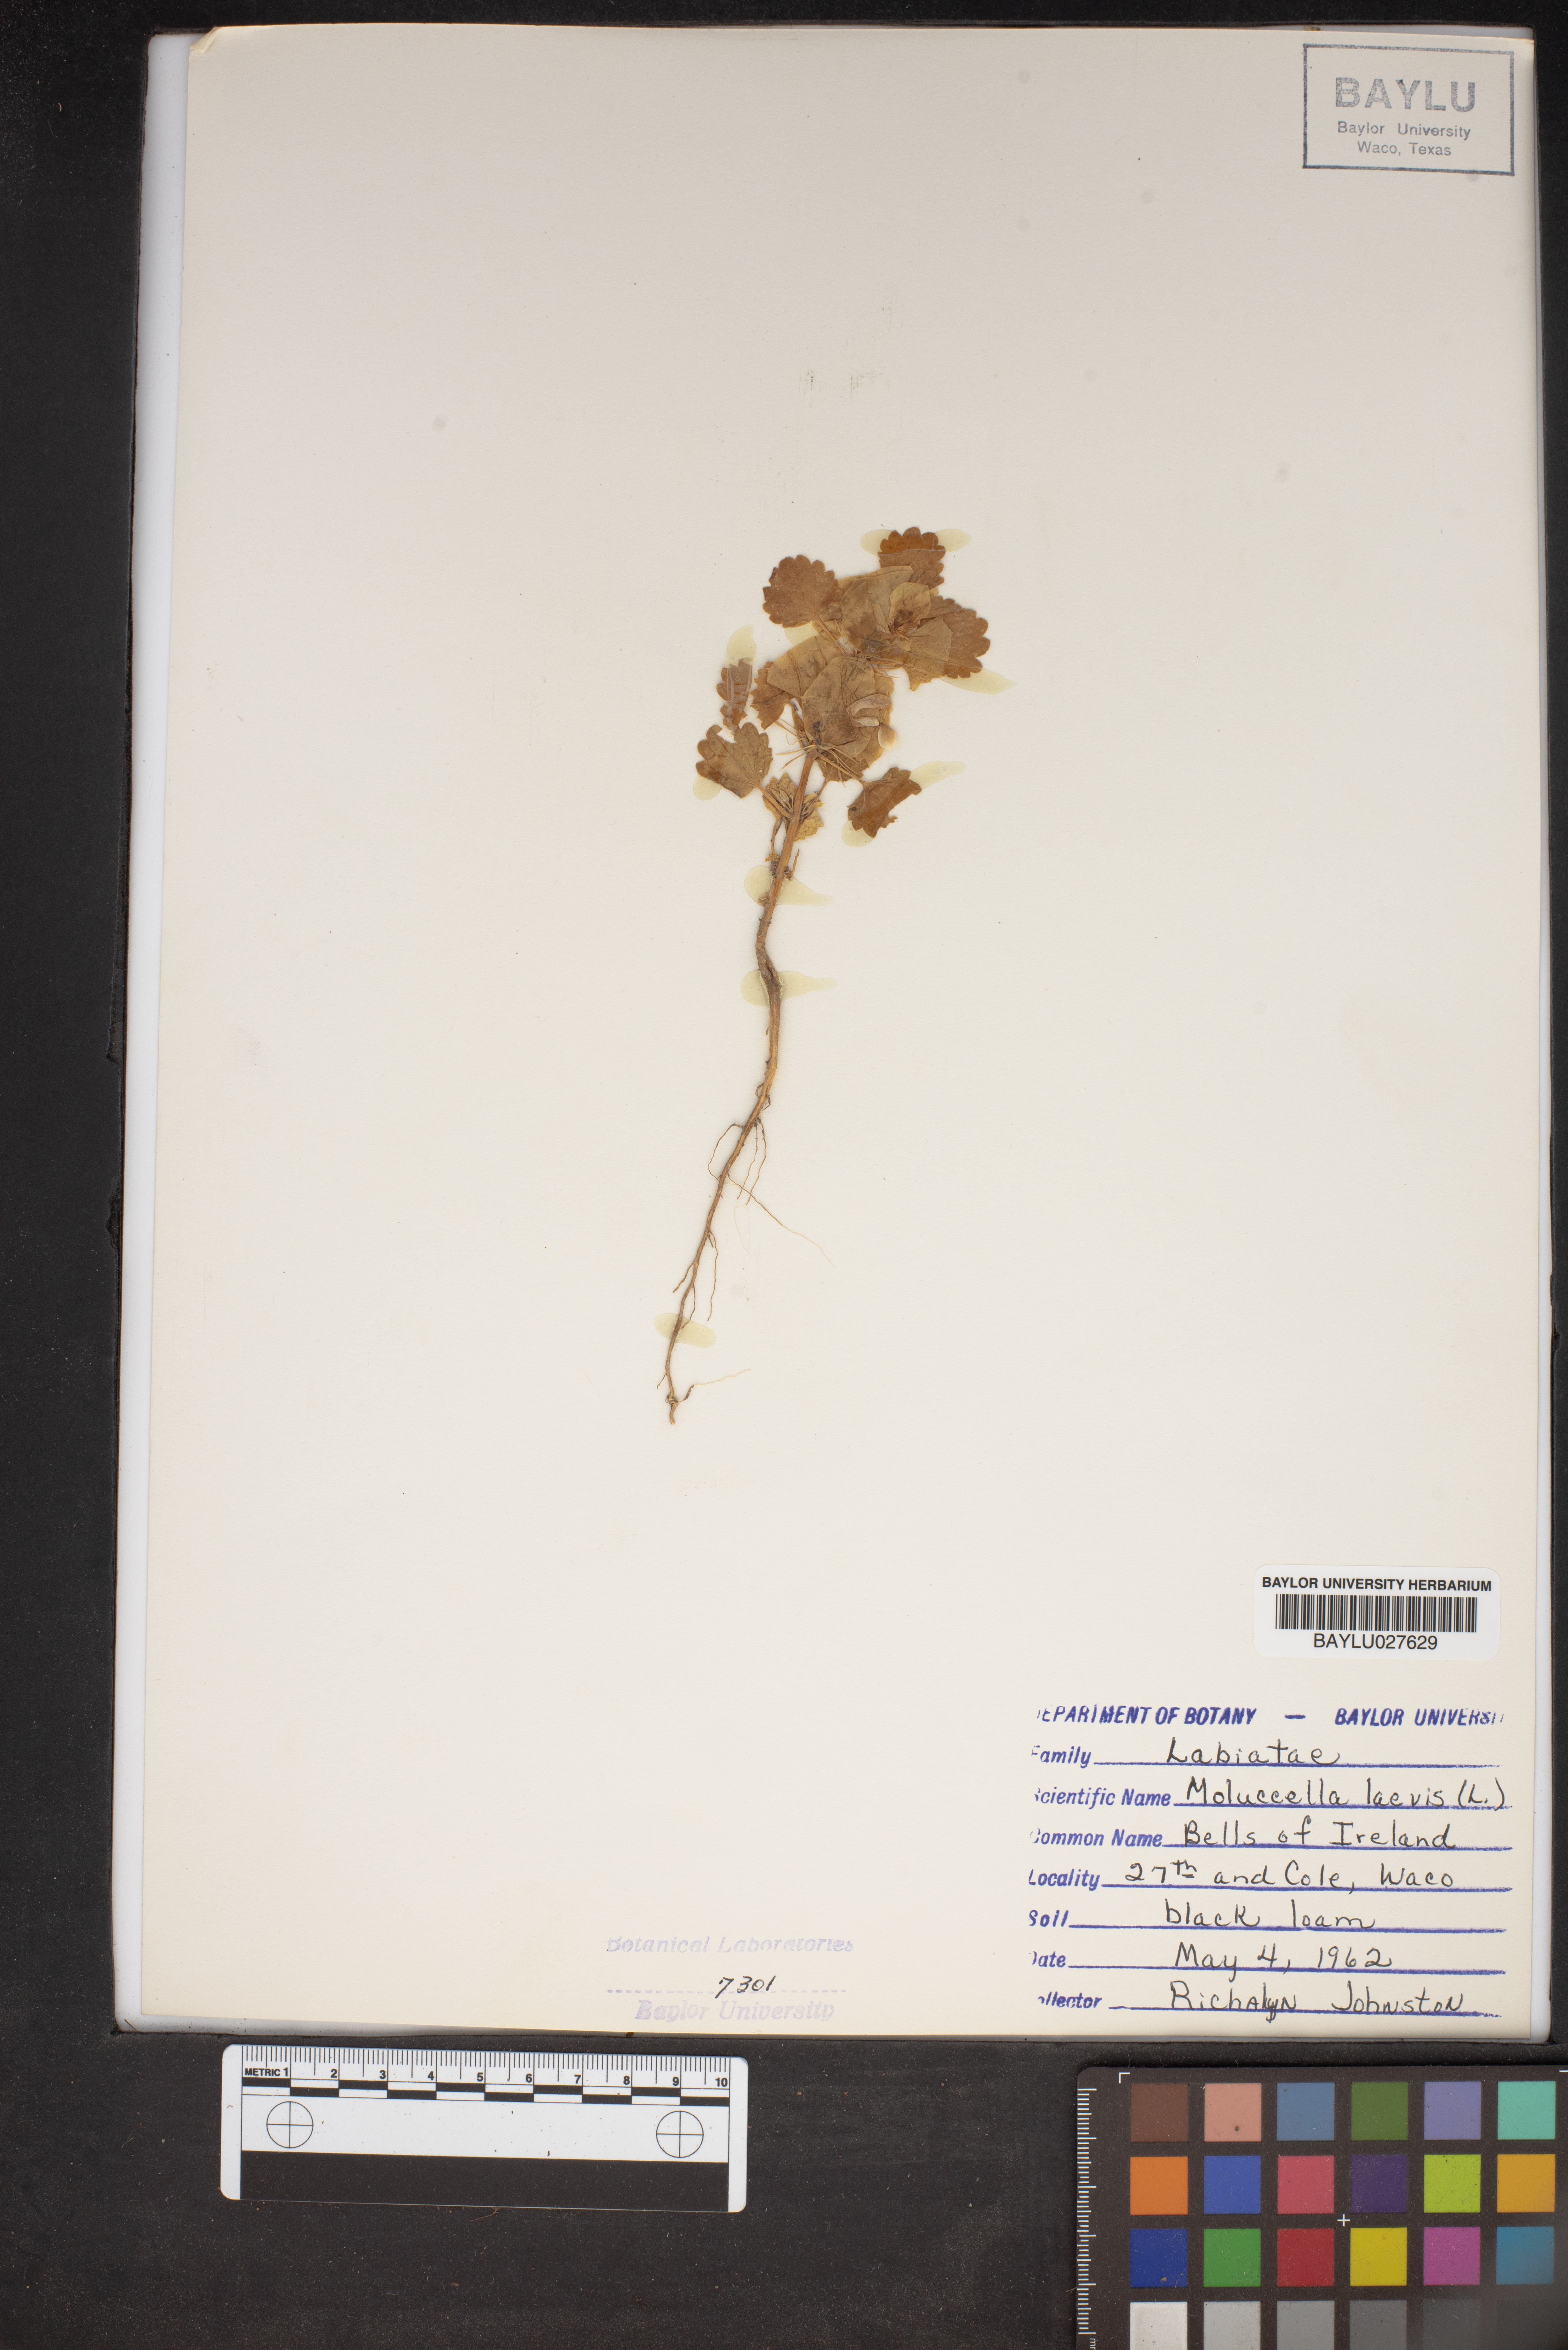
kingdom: Plantae
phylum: Tracheophyta
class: Magnoliopsida
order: Lamiales
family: Lamiaceae
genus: Moluccella
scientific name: Moluccella laevis
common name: Shellflower
